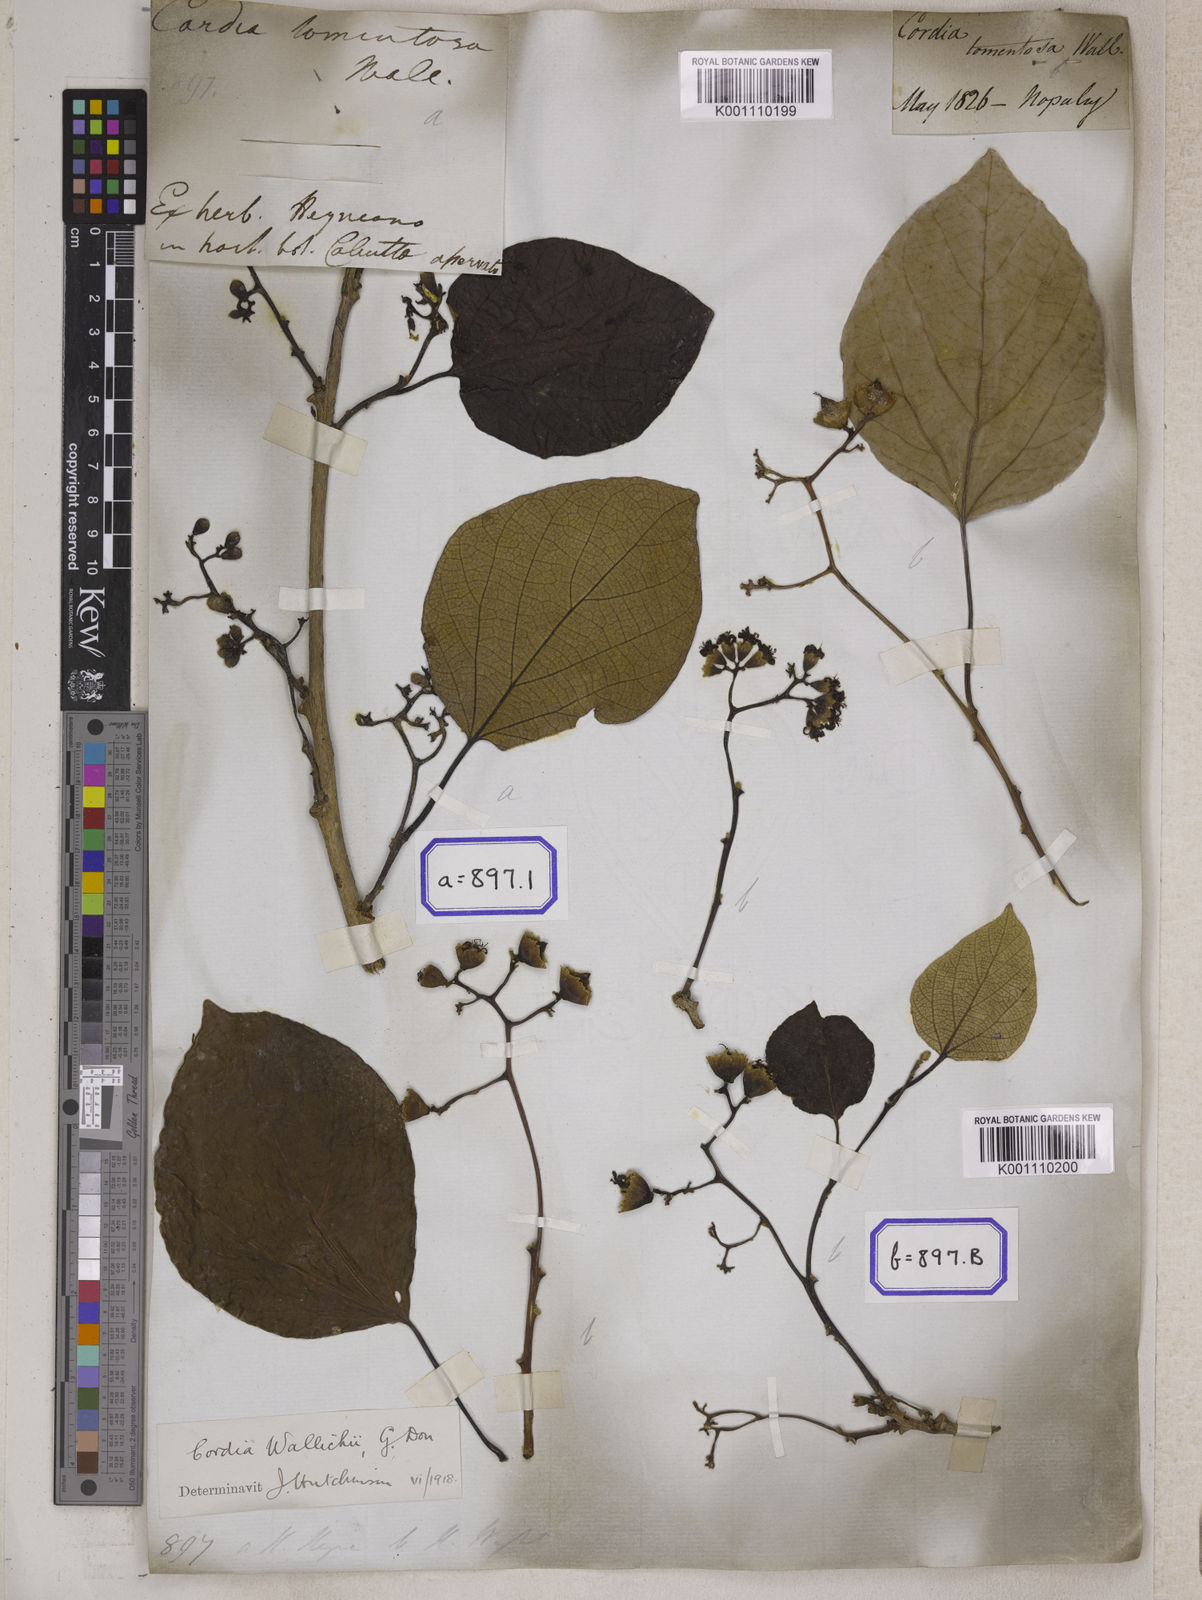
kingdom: Plantae
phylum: Tracheophyta
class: Magnoliopsida
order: Boraginales
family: Cordiaceae
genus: Cordia
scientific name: Cordia dichotoma
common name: Fragrant manjack
